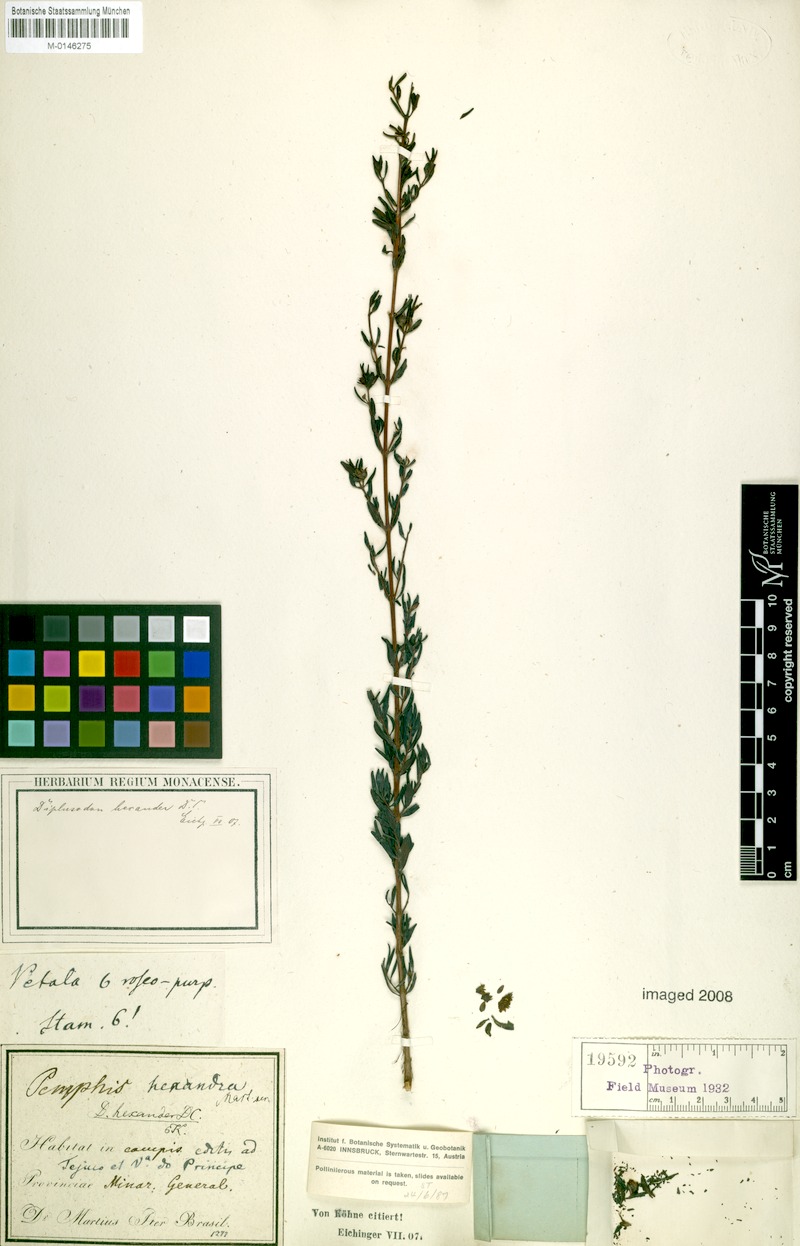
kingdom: Plantae
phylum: Tracheophyta
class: Magnoliopsida
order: Myrtales
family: Lythraceae
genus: Diplusodon
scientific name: Diplusodon hexander
